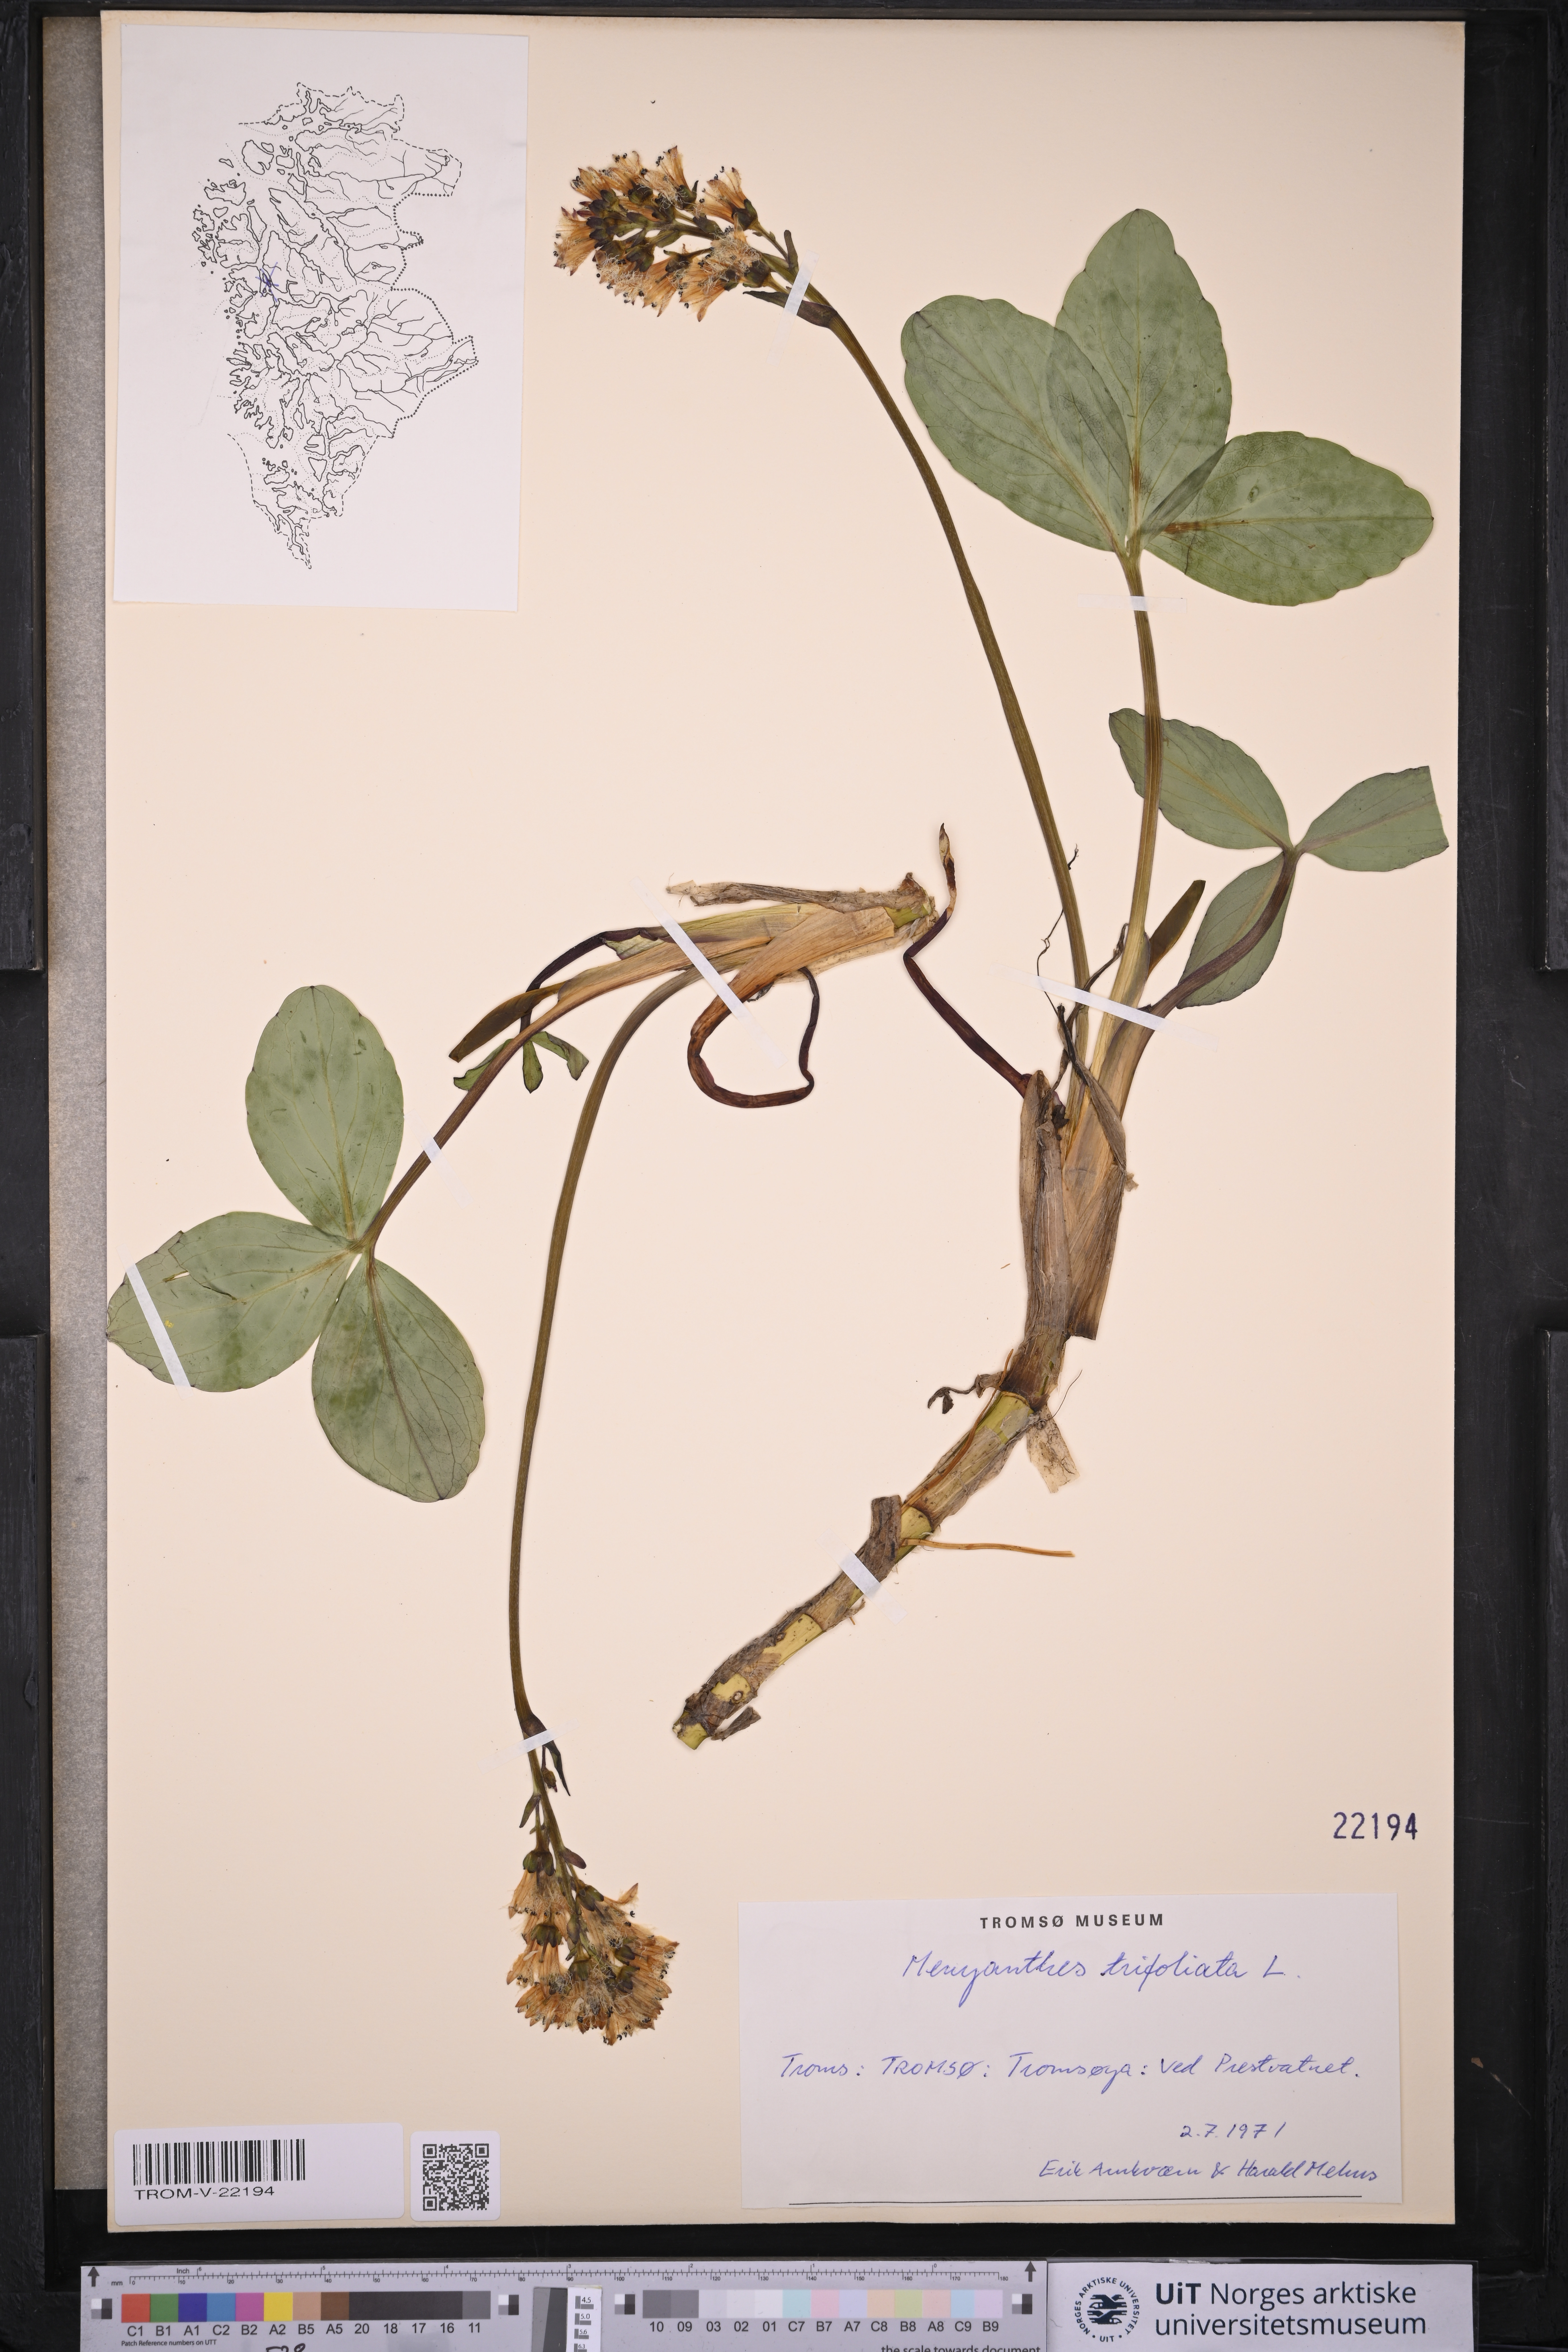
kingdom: Plantae
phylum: Tracheophyta
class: Magnoliopsida
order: Asterales
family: Menyanthaceae
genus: Menyanthes
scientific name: Menyanthes trifoliata
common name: Bogbean
